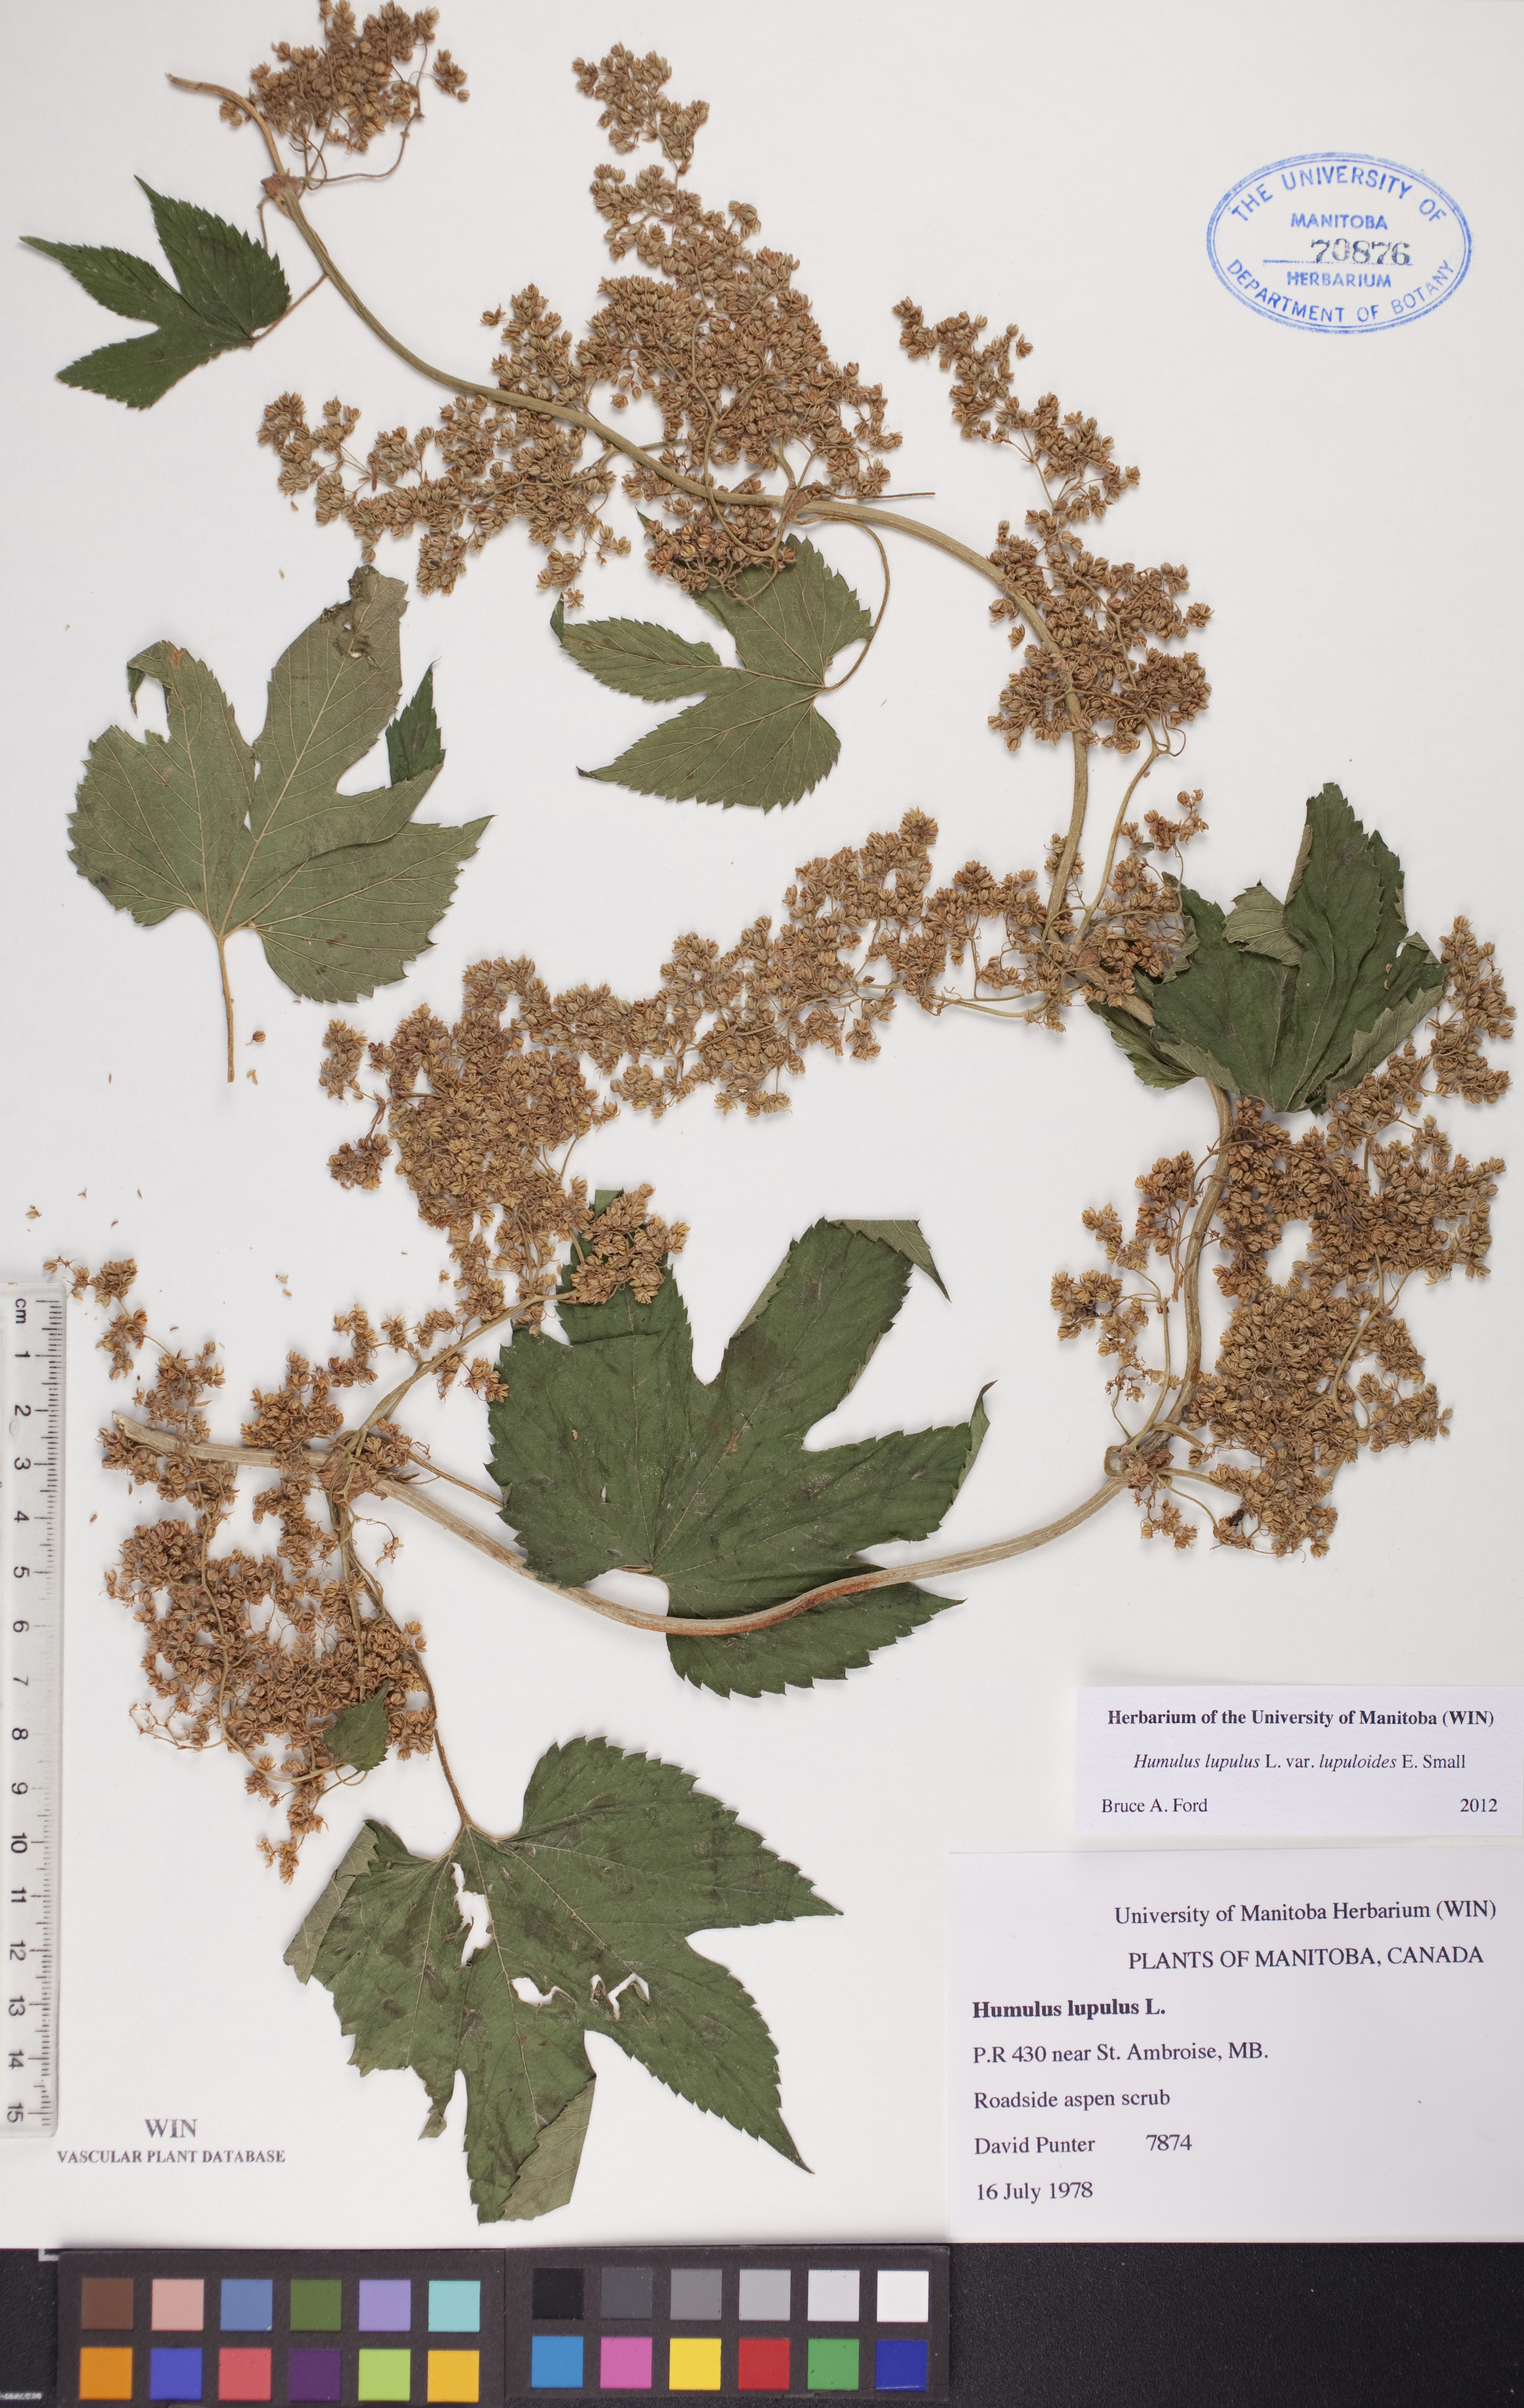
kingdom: Plantae
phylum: Tracheophyta
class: Magnoliopsida
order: Rosales
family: Cannabaceae
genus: Humulus
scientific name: Humulus americanus
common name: American hops
